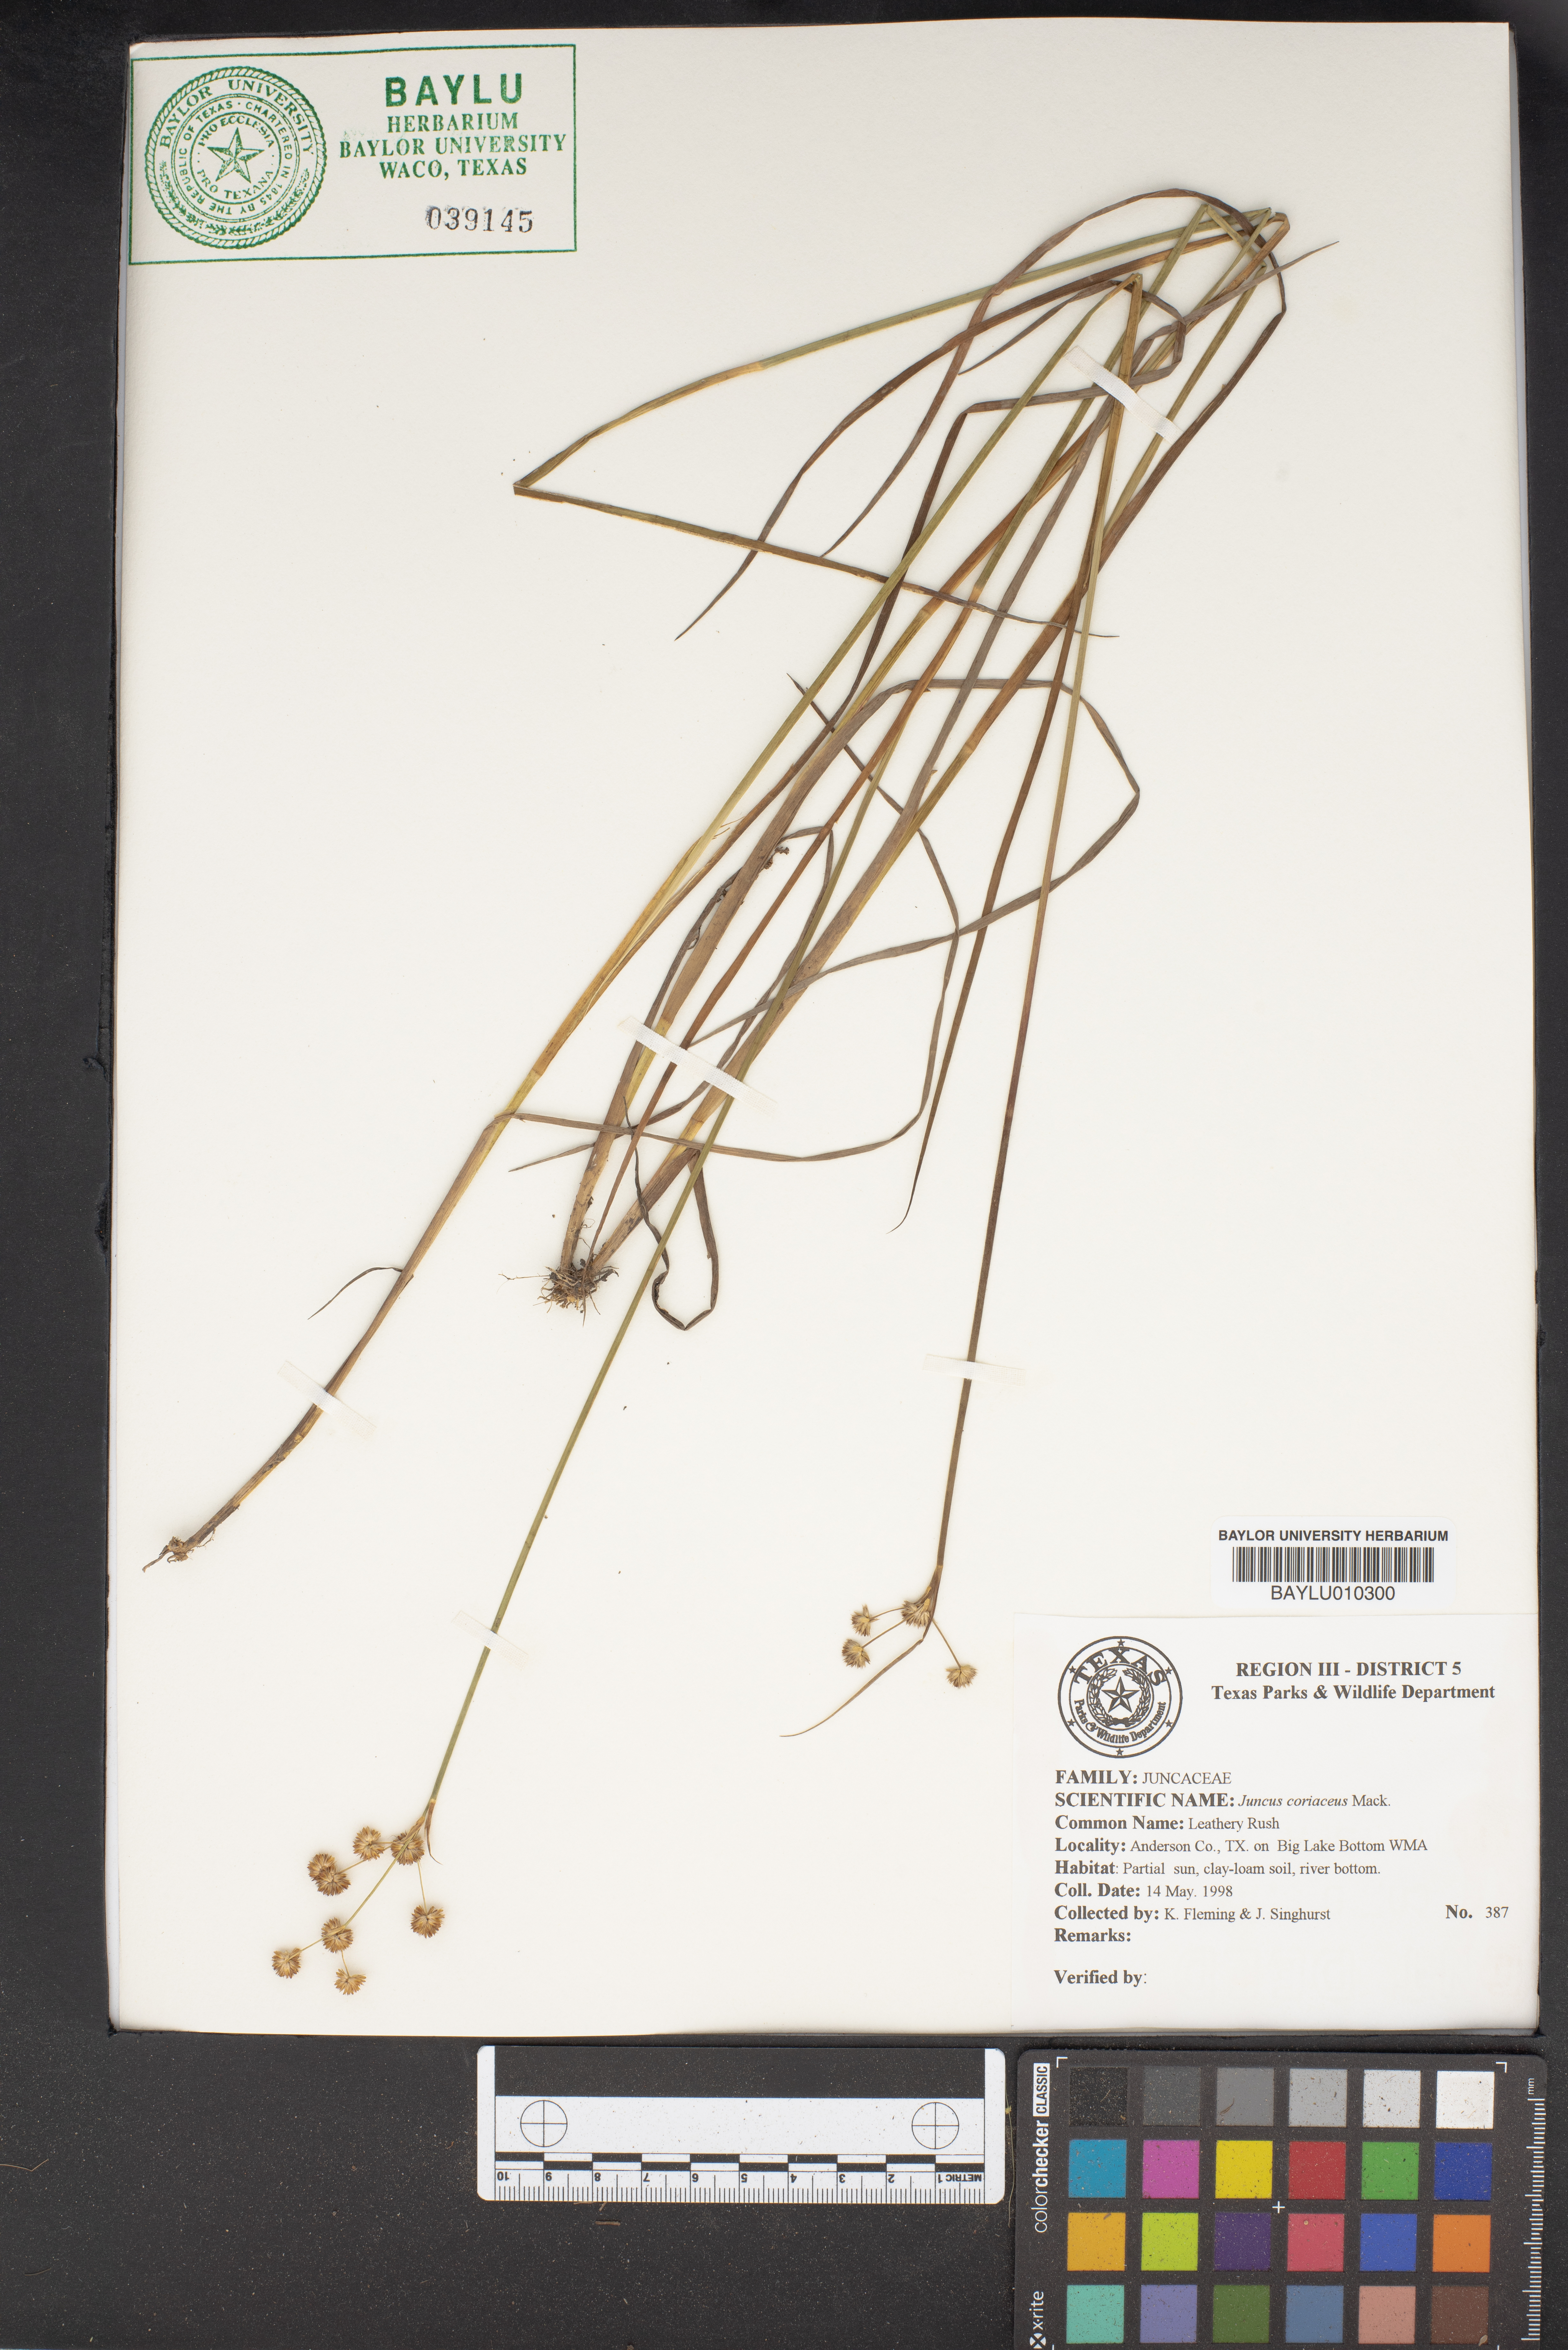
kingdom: Plantae
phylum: Tracheophyta
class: Liliopsida
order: Poales
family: Juncaceae
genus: Juncus
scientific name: Juncus coriaceus
